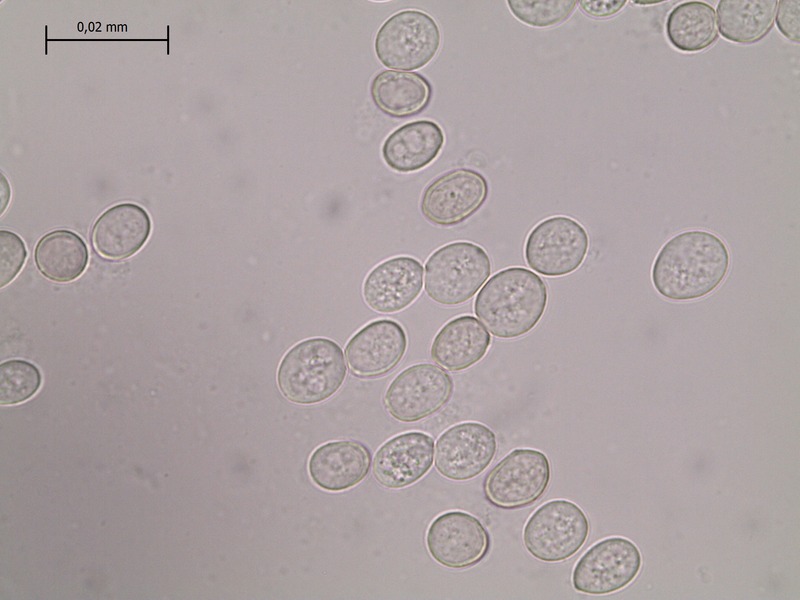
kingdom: Fungi
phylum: Basidiomycota
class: Pucciniomycetes
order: Helicobasidiales
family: Helicobasidiaceae
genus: Helicobasidium
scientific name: Helicobasidium purpureum
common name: Violet root rot
